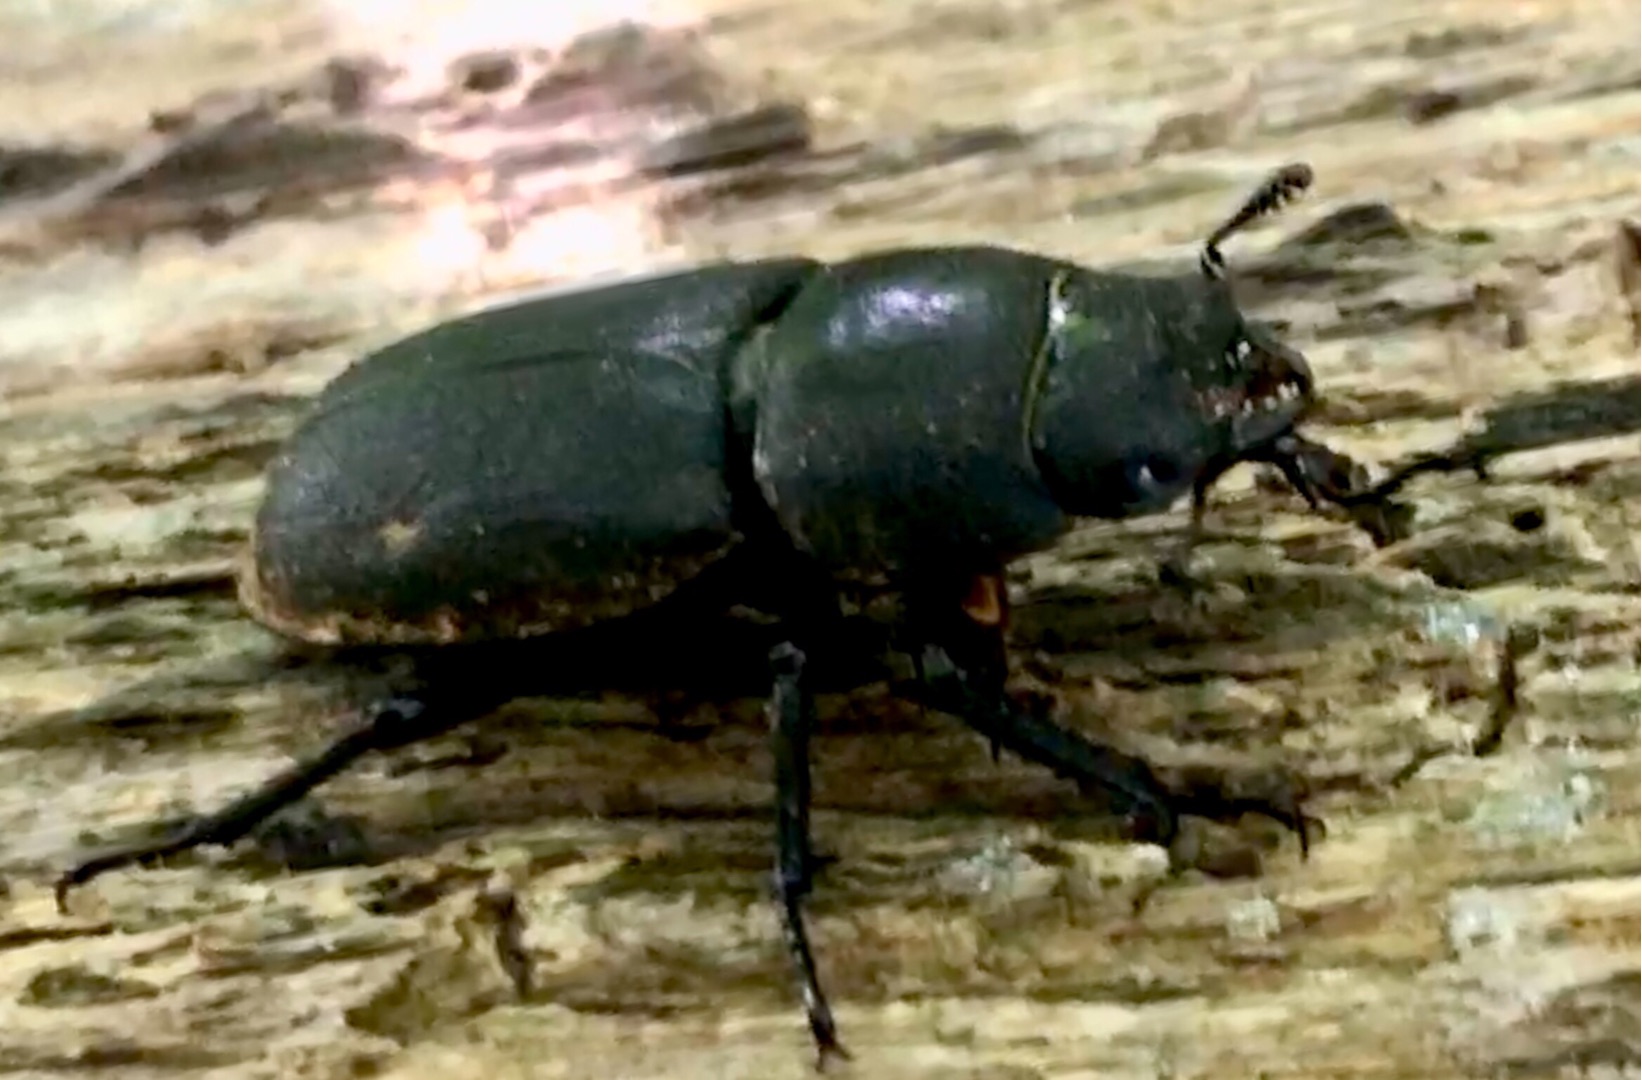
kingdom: Animalia
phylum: Arthropoda
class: Insecta
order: Coleoptera
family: Lucanidae
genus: Dorcus
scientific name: Dorcus parallelipipedus
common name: Bøghjort
